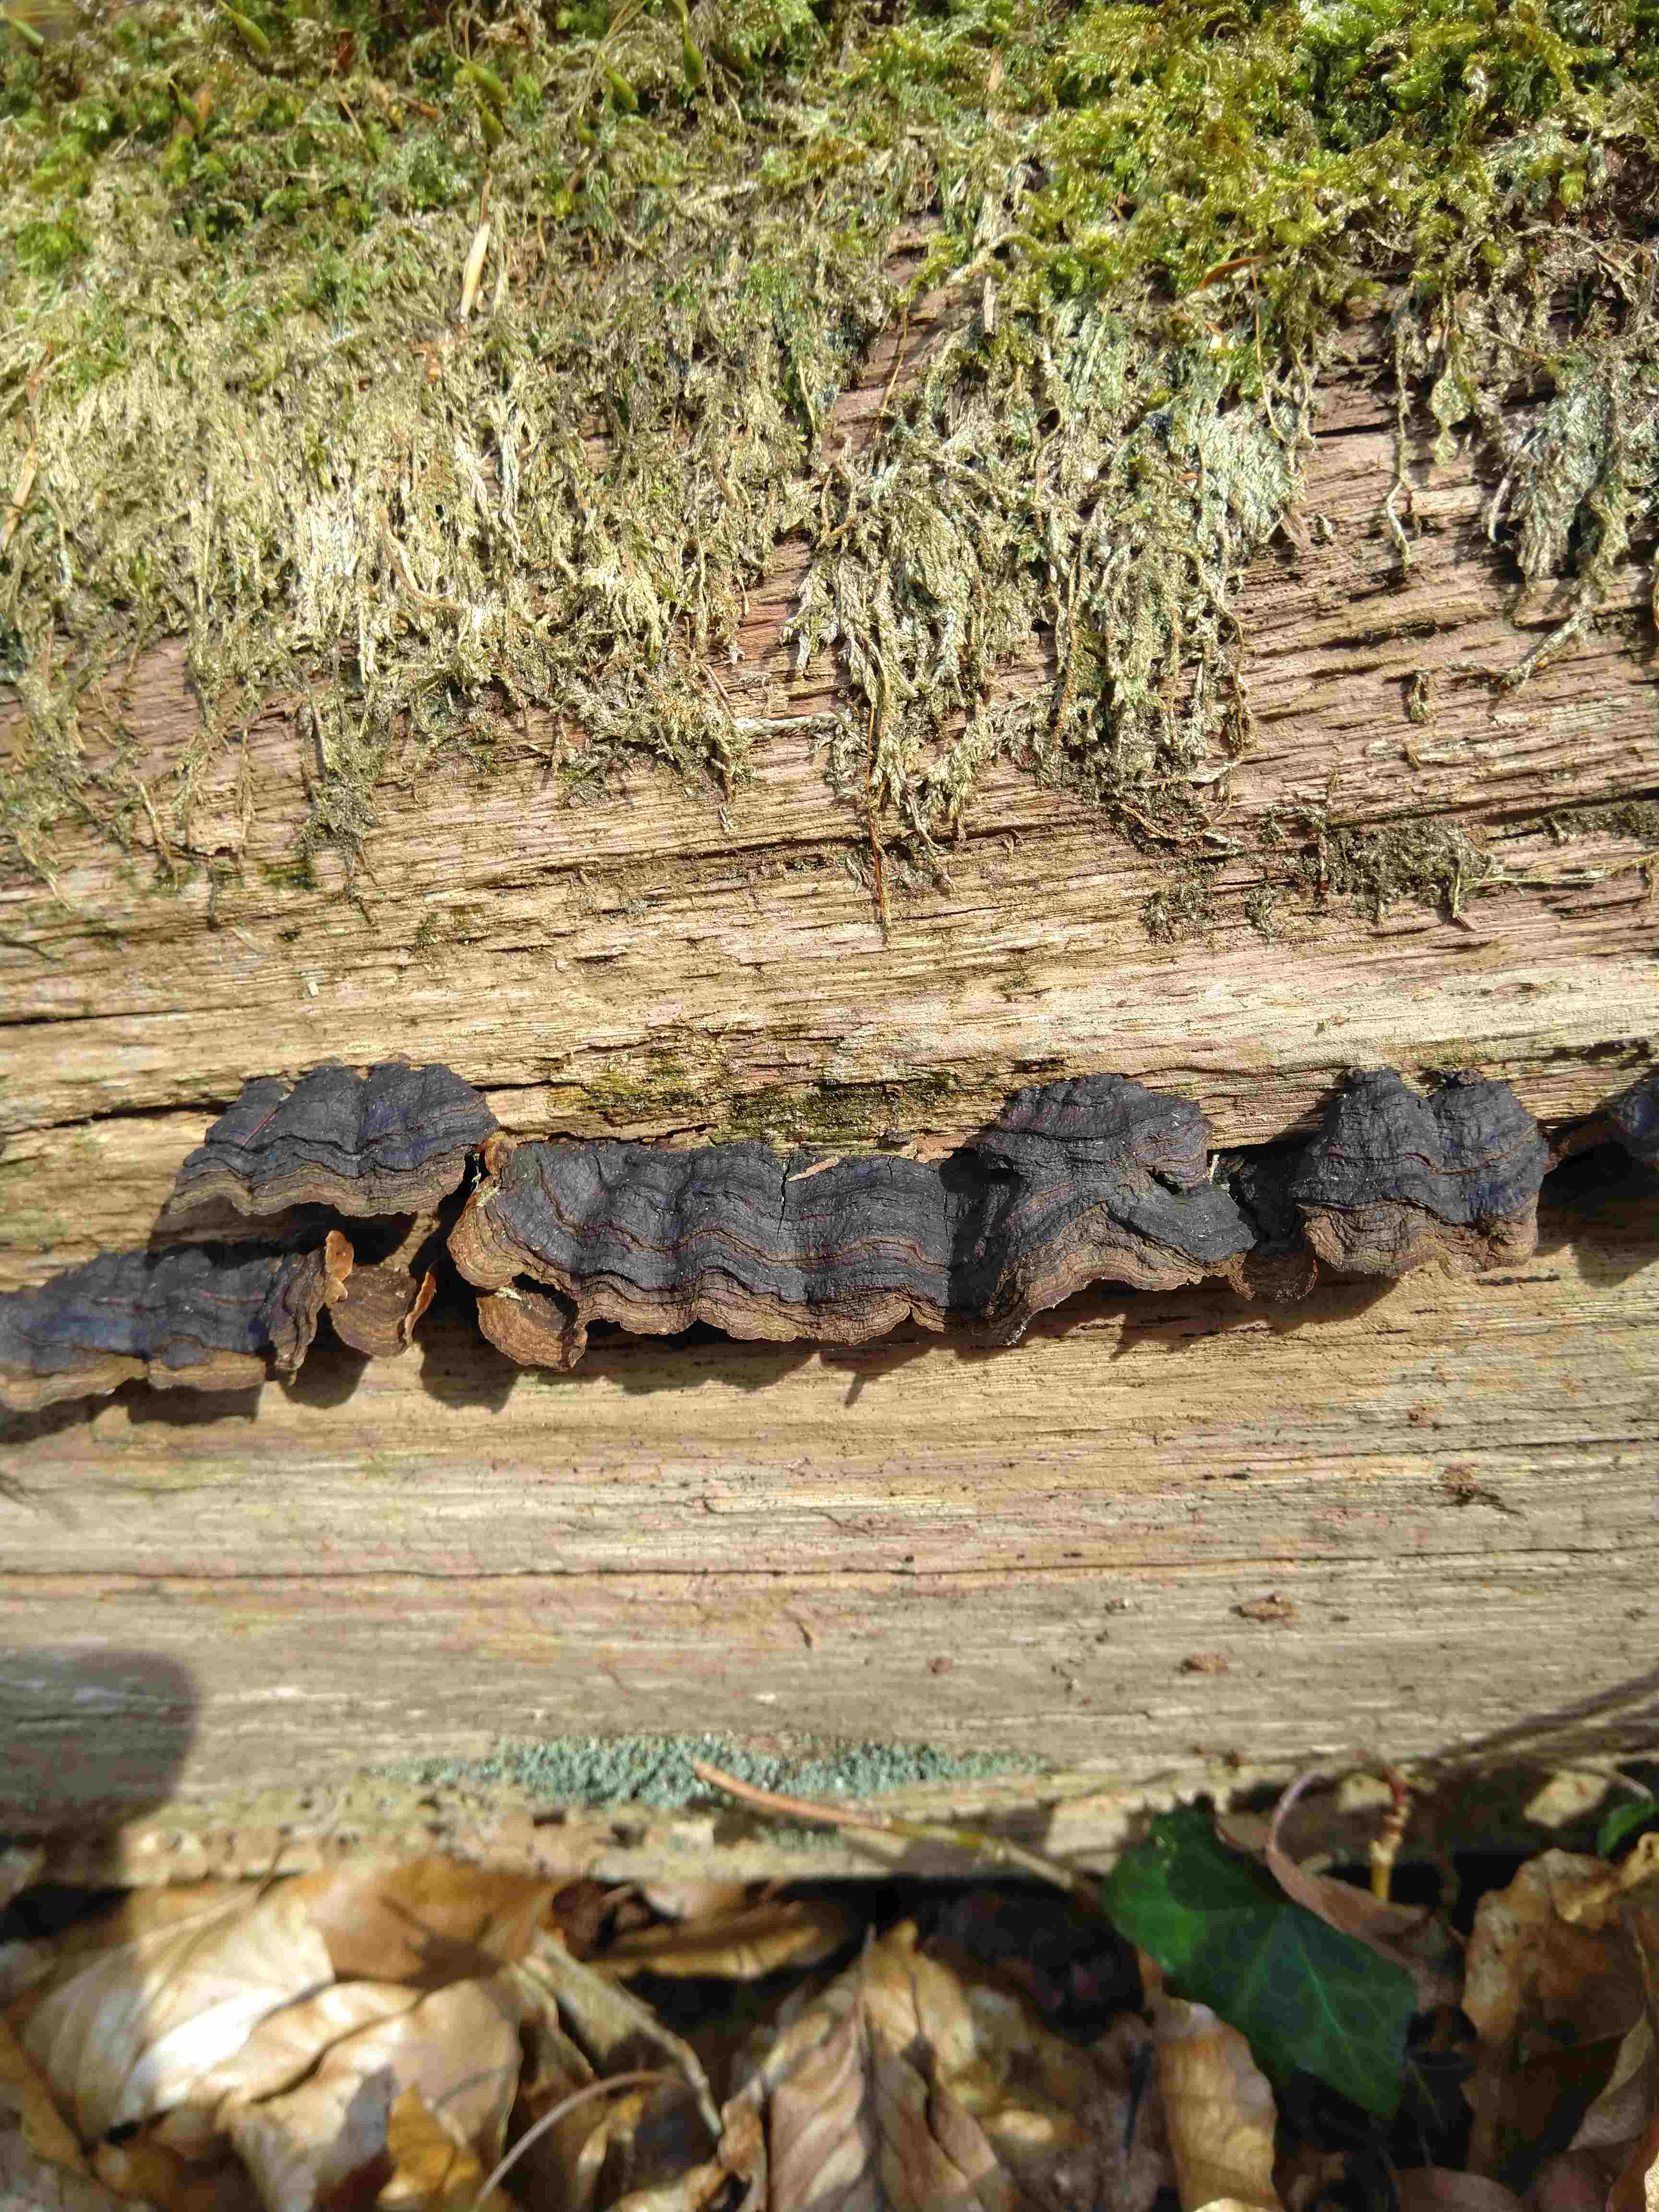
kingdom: Fungi
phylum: Basidiomycota
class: Agaricomycetes
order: Hymenochaetales
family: Hymenochaetaceae
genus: Hymenochaete
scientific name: Hymenochaete rubiginosa
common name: stiv ruslædersvamp
